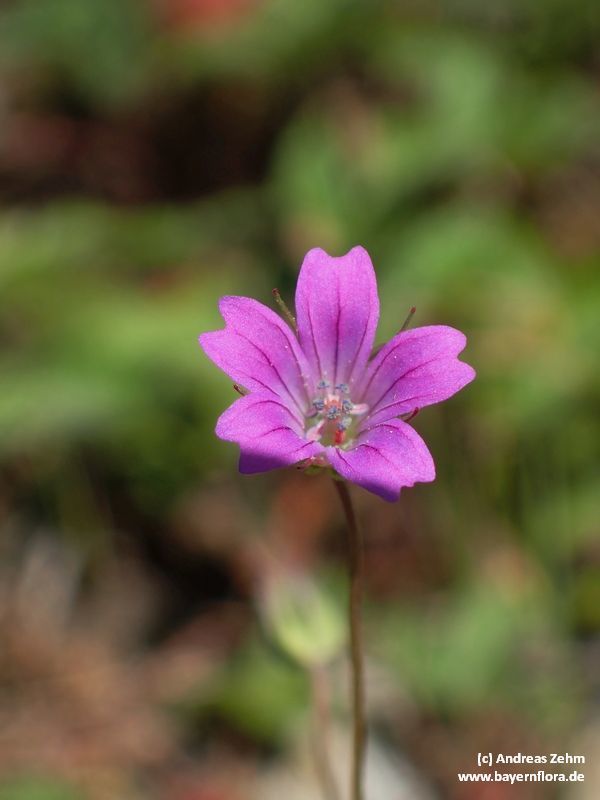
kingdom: Plantae
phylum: Tracheophyta
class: Magnoliopsida
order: Geraniales
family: Geraniaceae
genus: Geranium
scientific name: Geranium columbinum
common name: Long-stalked crane's-bill
